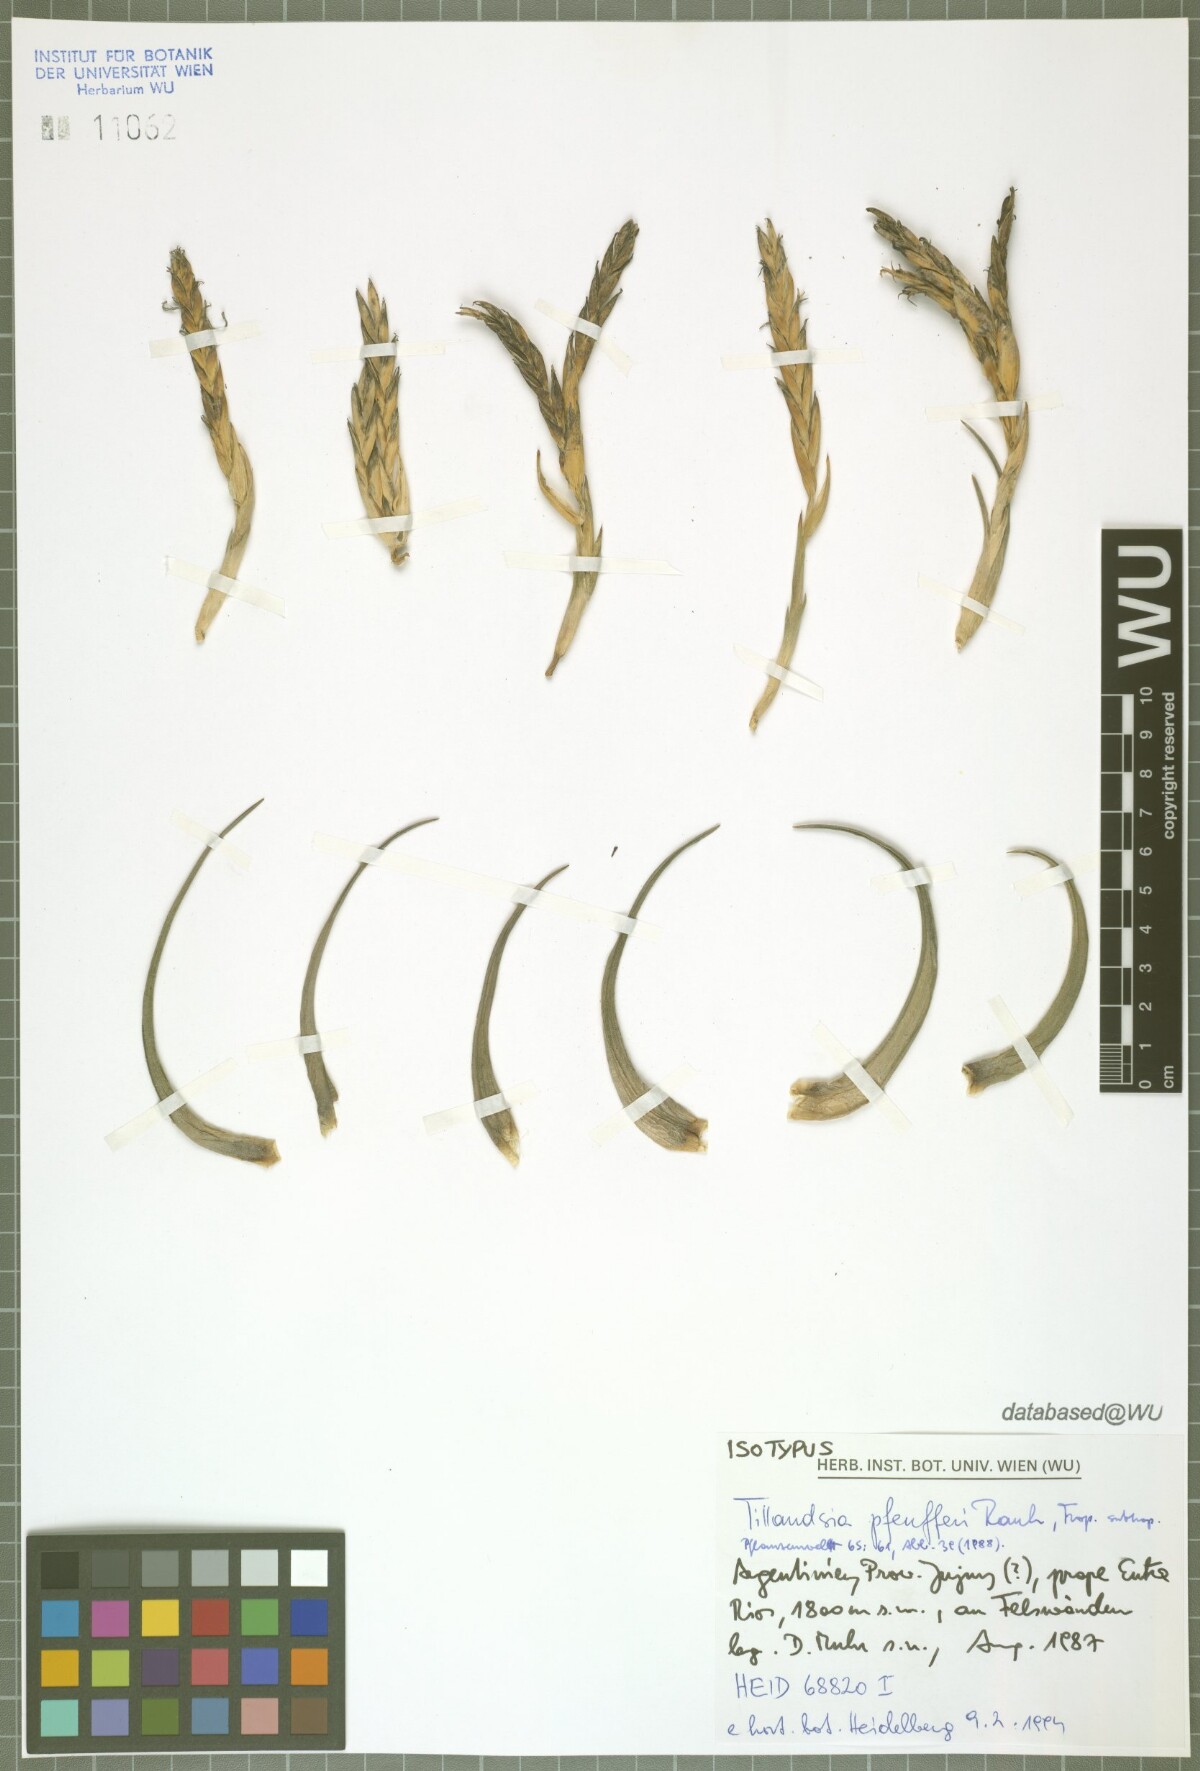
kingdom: Plantae
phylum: Tracheophyta
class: Liliopsida
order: Poales
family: Bromeliaceae
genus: Tillandsia
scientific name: Tillandsia pfeufferi
